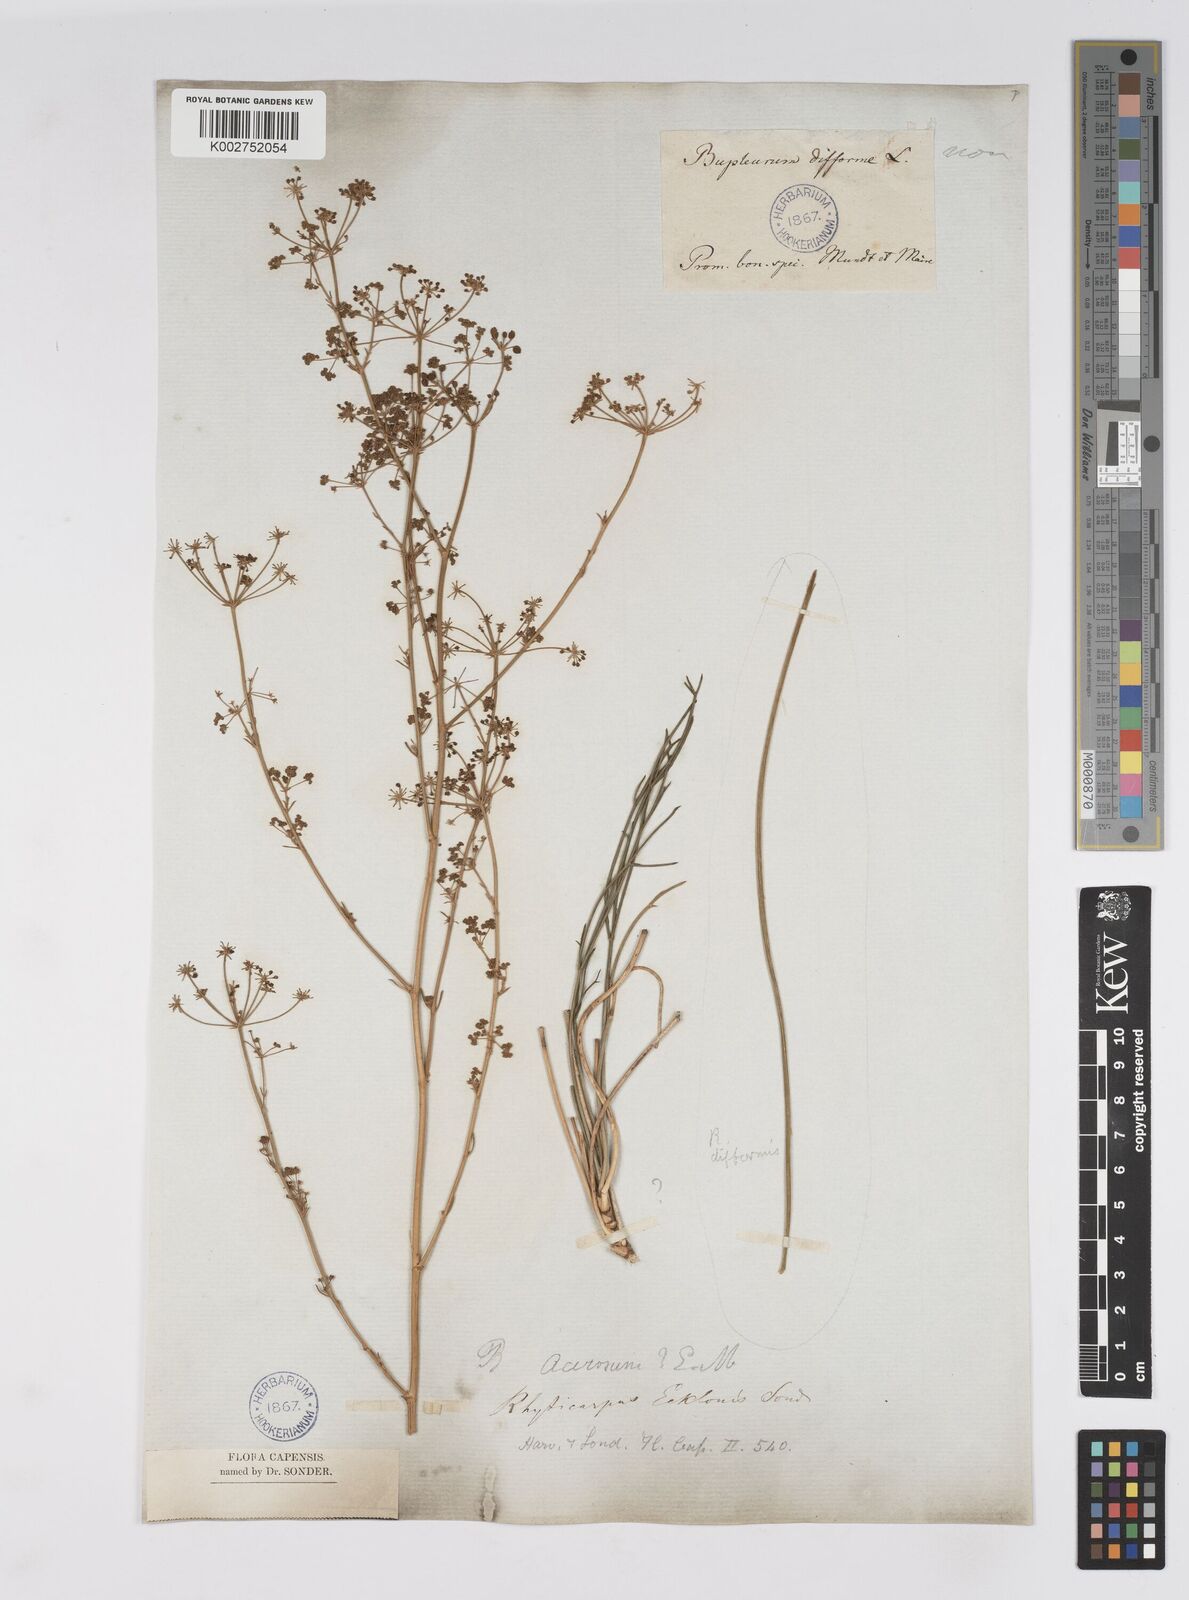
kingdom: Plantae
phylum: Tracheophyta
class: Magnoliopsida
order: Apiales
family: Apiaceae
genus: Anginon
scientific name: Anginon fruticosum
